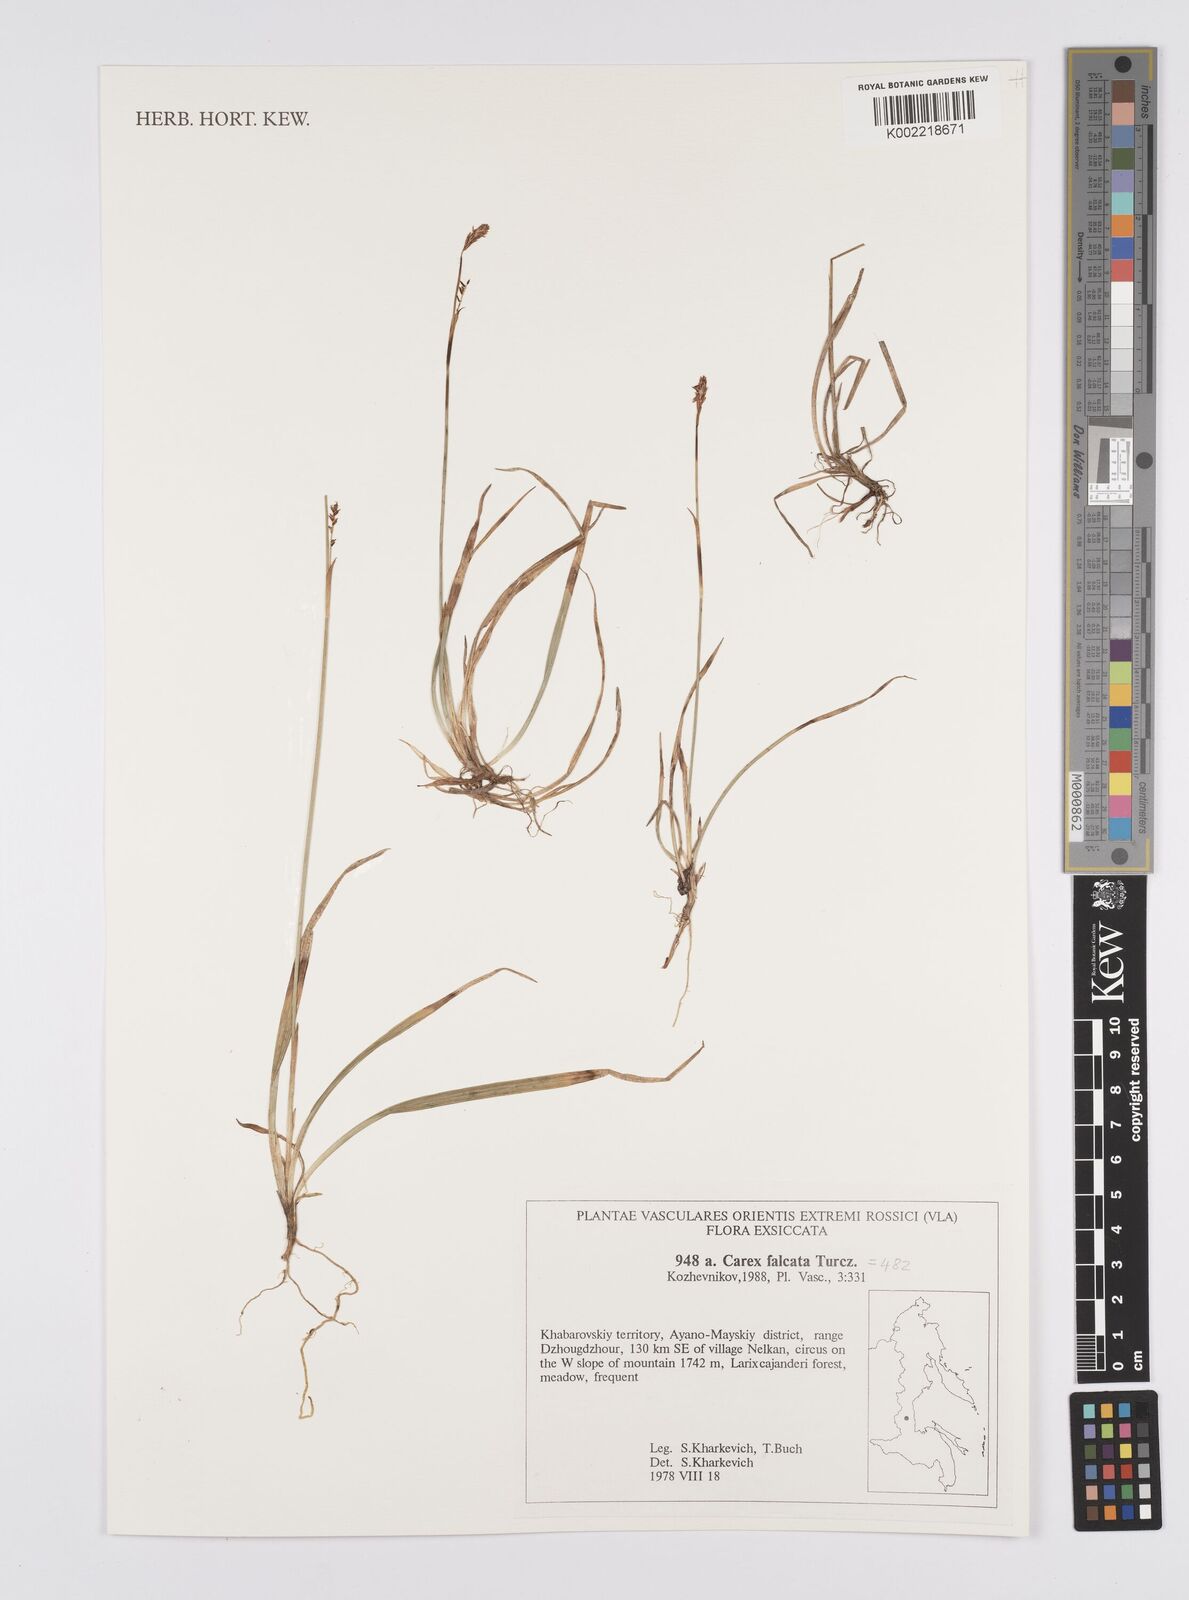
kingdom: Plantae
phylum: Tracheophyta
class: Liliopsida
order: Poales
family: Cyperaceae
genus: Carex
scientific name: Carex vaginata
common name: Sheathed sedge
